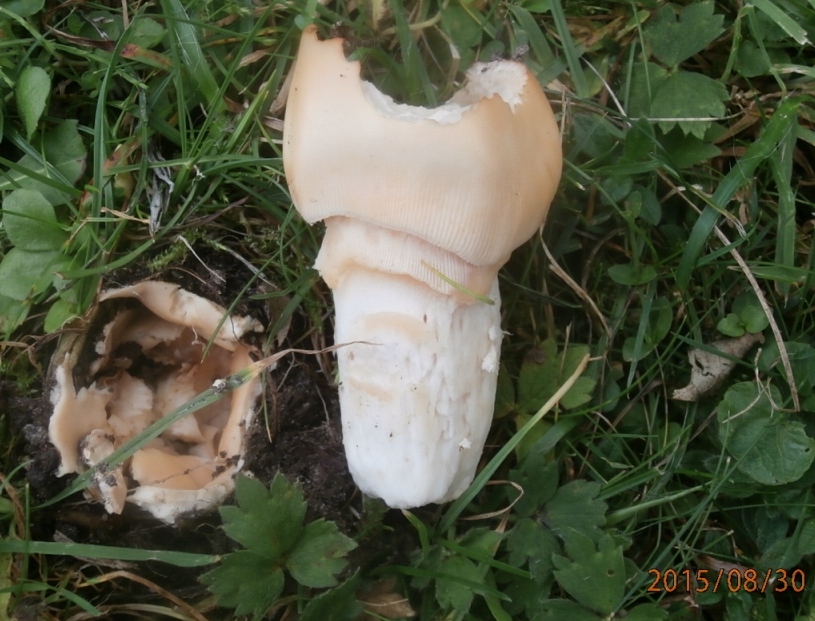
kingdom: Fungi
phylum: Basidiomycota
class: Agaricomycetes
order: Agaricales
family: Amanitaceae
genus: Amanita
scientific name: Amanita lividopallescens
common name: afblegende kam-fluesvamp
